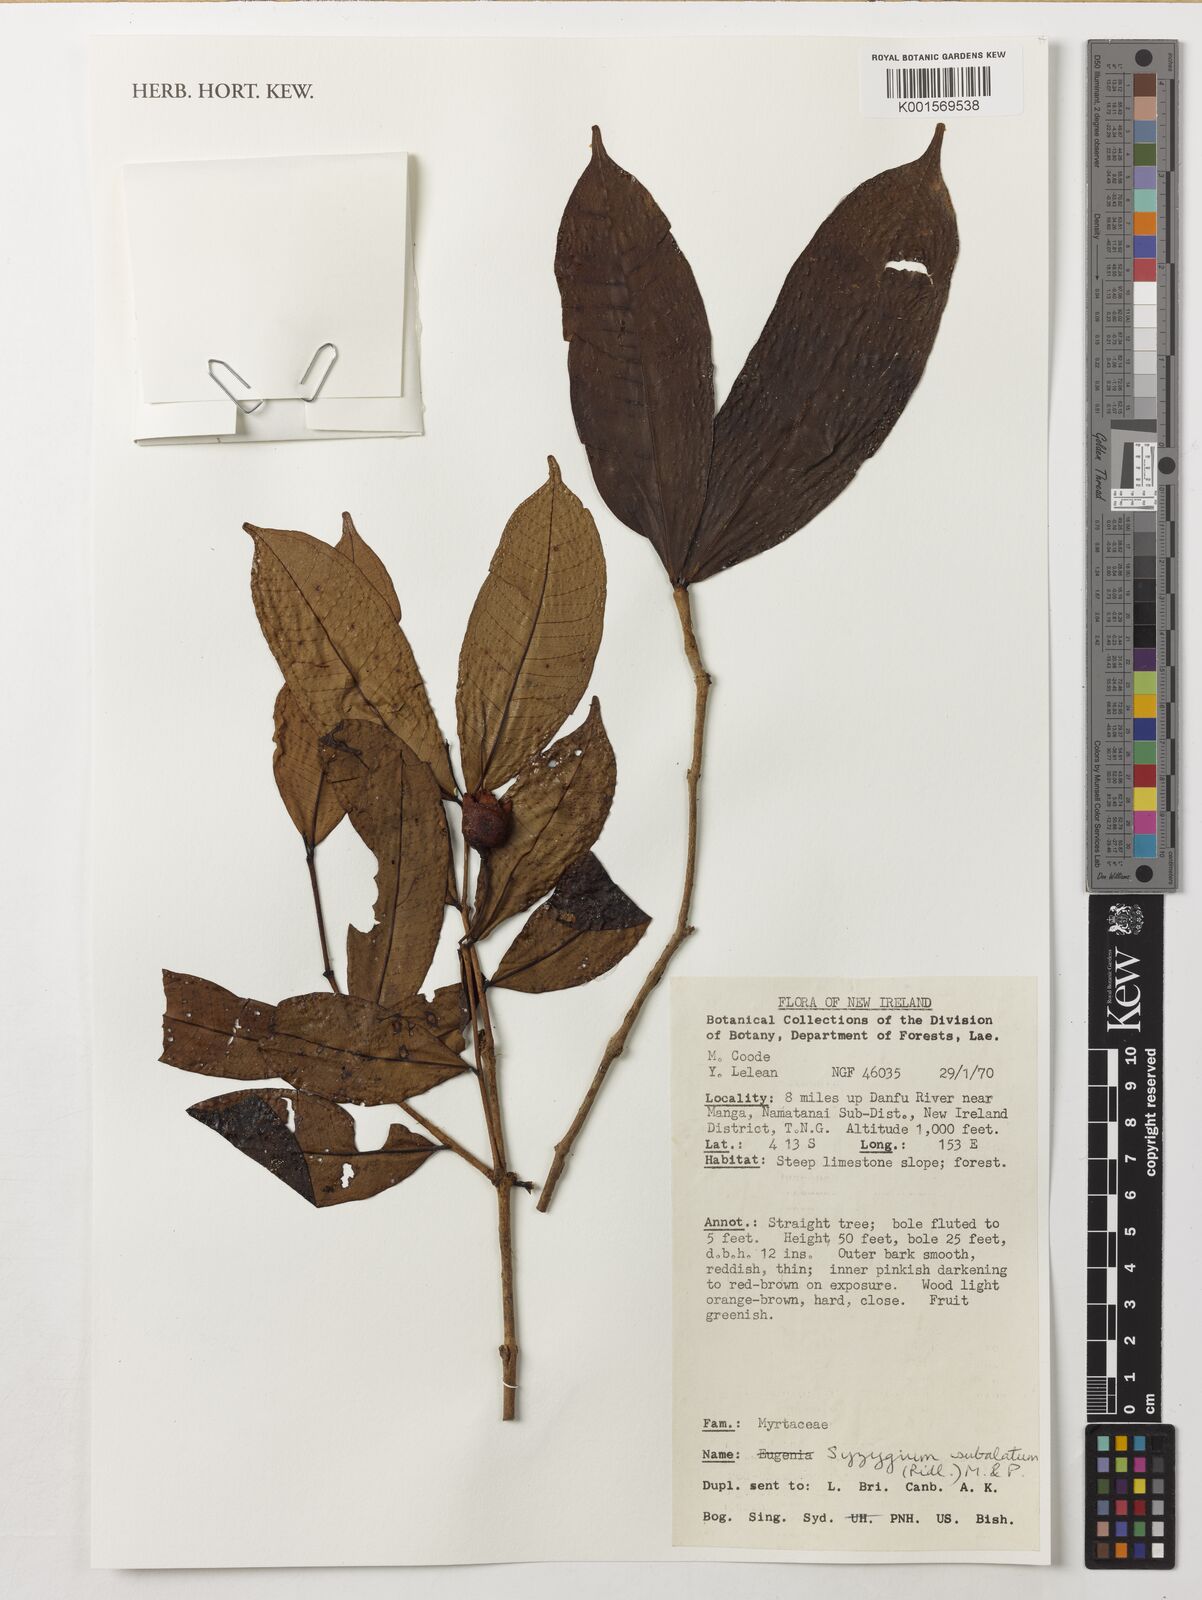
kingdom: Plantae
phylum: Tracheophyta
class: Magnoliopsida
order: Myrtales
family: Myrtaceae
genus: Syzygium
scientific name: Syzygium subalatum
